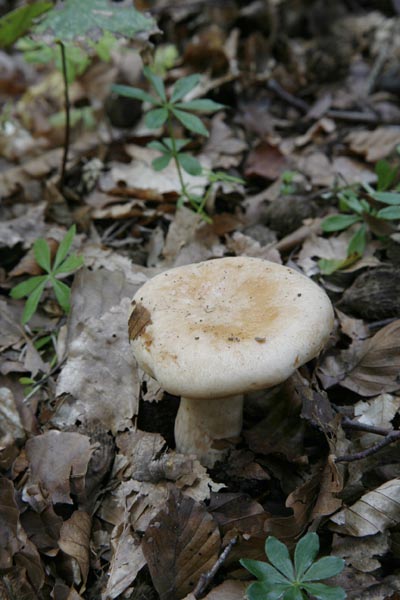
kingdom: Fungi
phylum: Basidiomycota
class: Agaricomycetes
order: Russulales
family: Russulaceae
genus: Lactarius
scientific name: Lactarius pallidus
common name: bleg mælkehat
